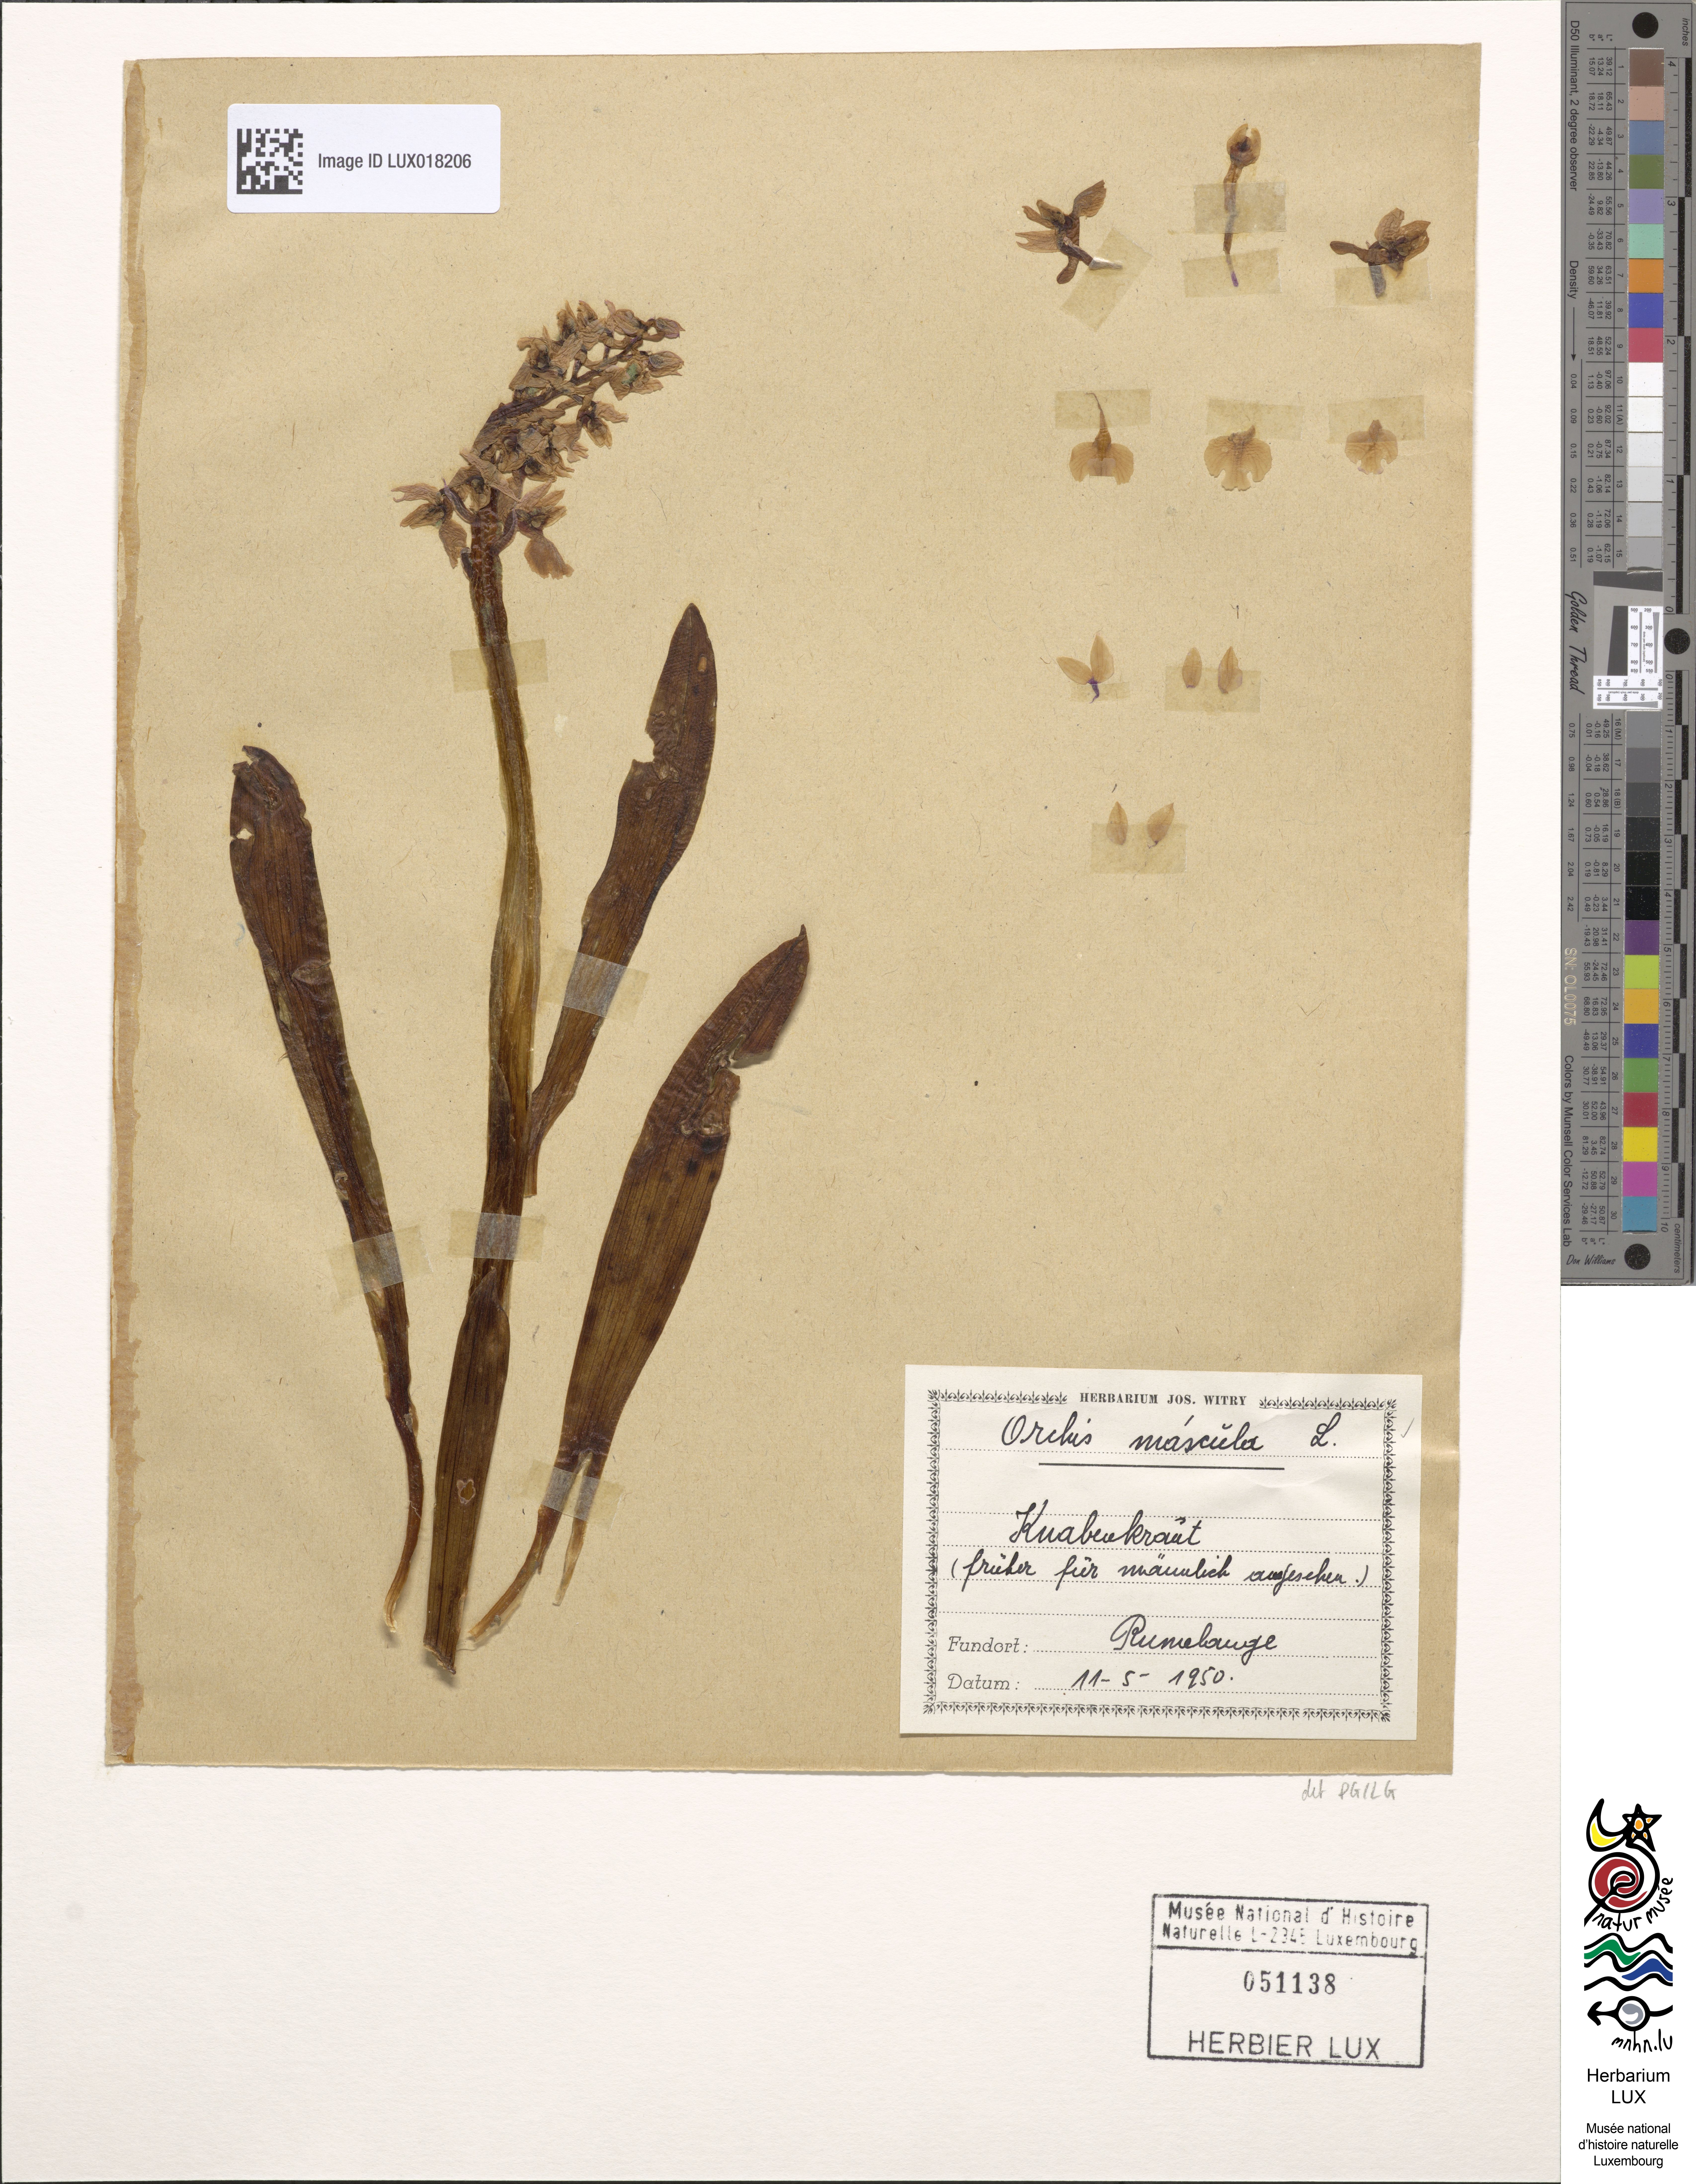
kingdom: Plantae
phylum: Tracheophyta
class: Liliopsida
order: Asparagales
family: Orchidaceae
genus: Orchis
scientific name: Orchis mascula
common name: Early-purple orchid
